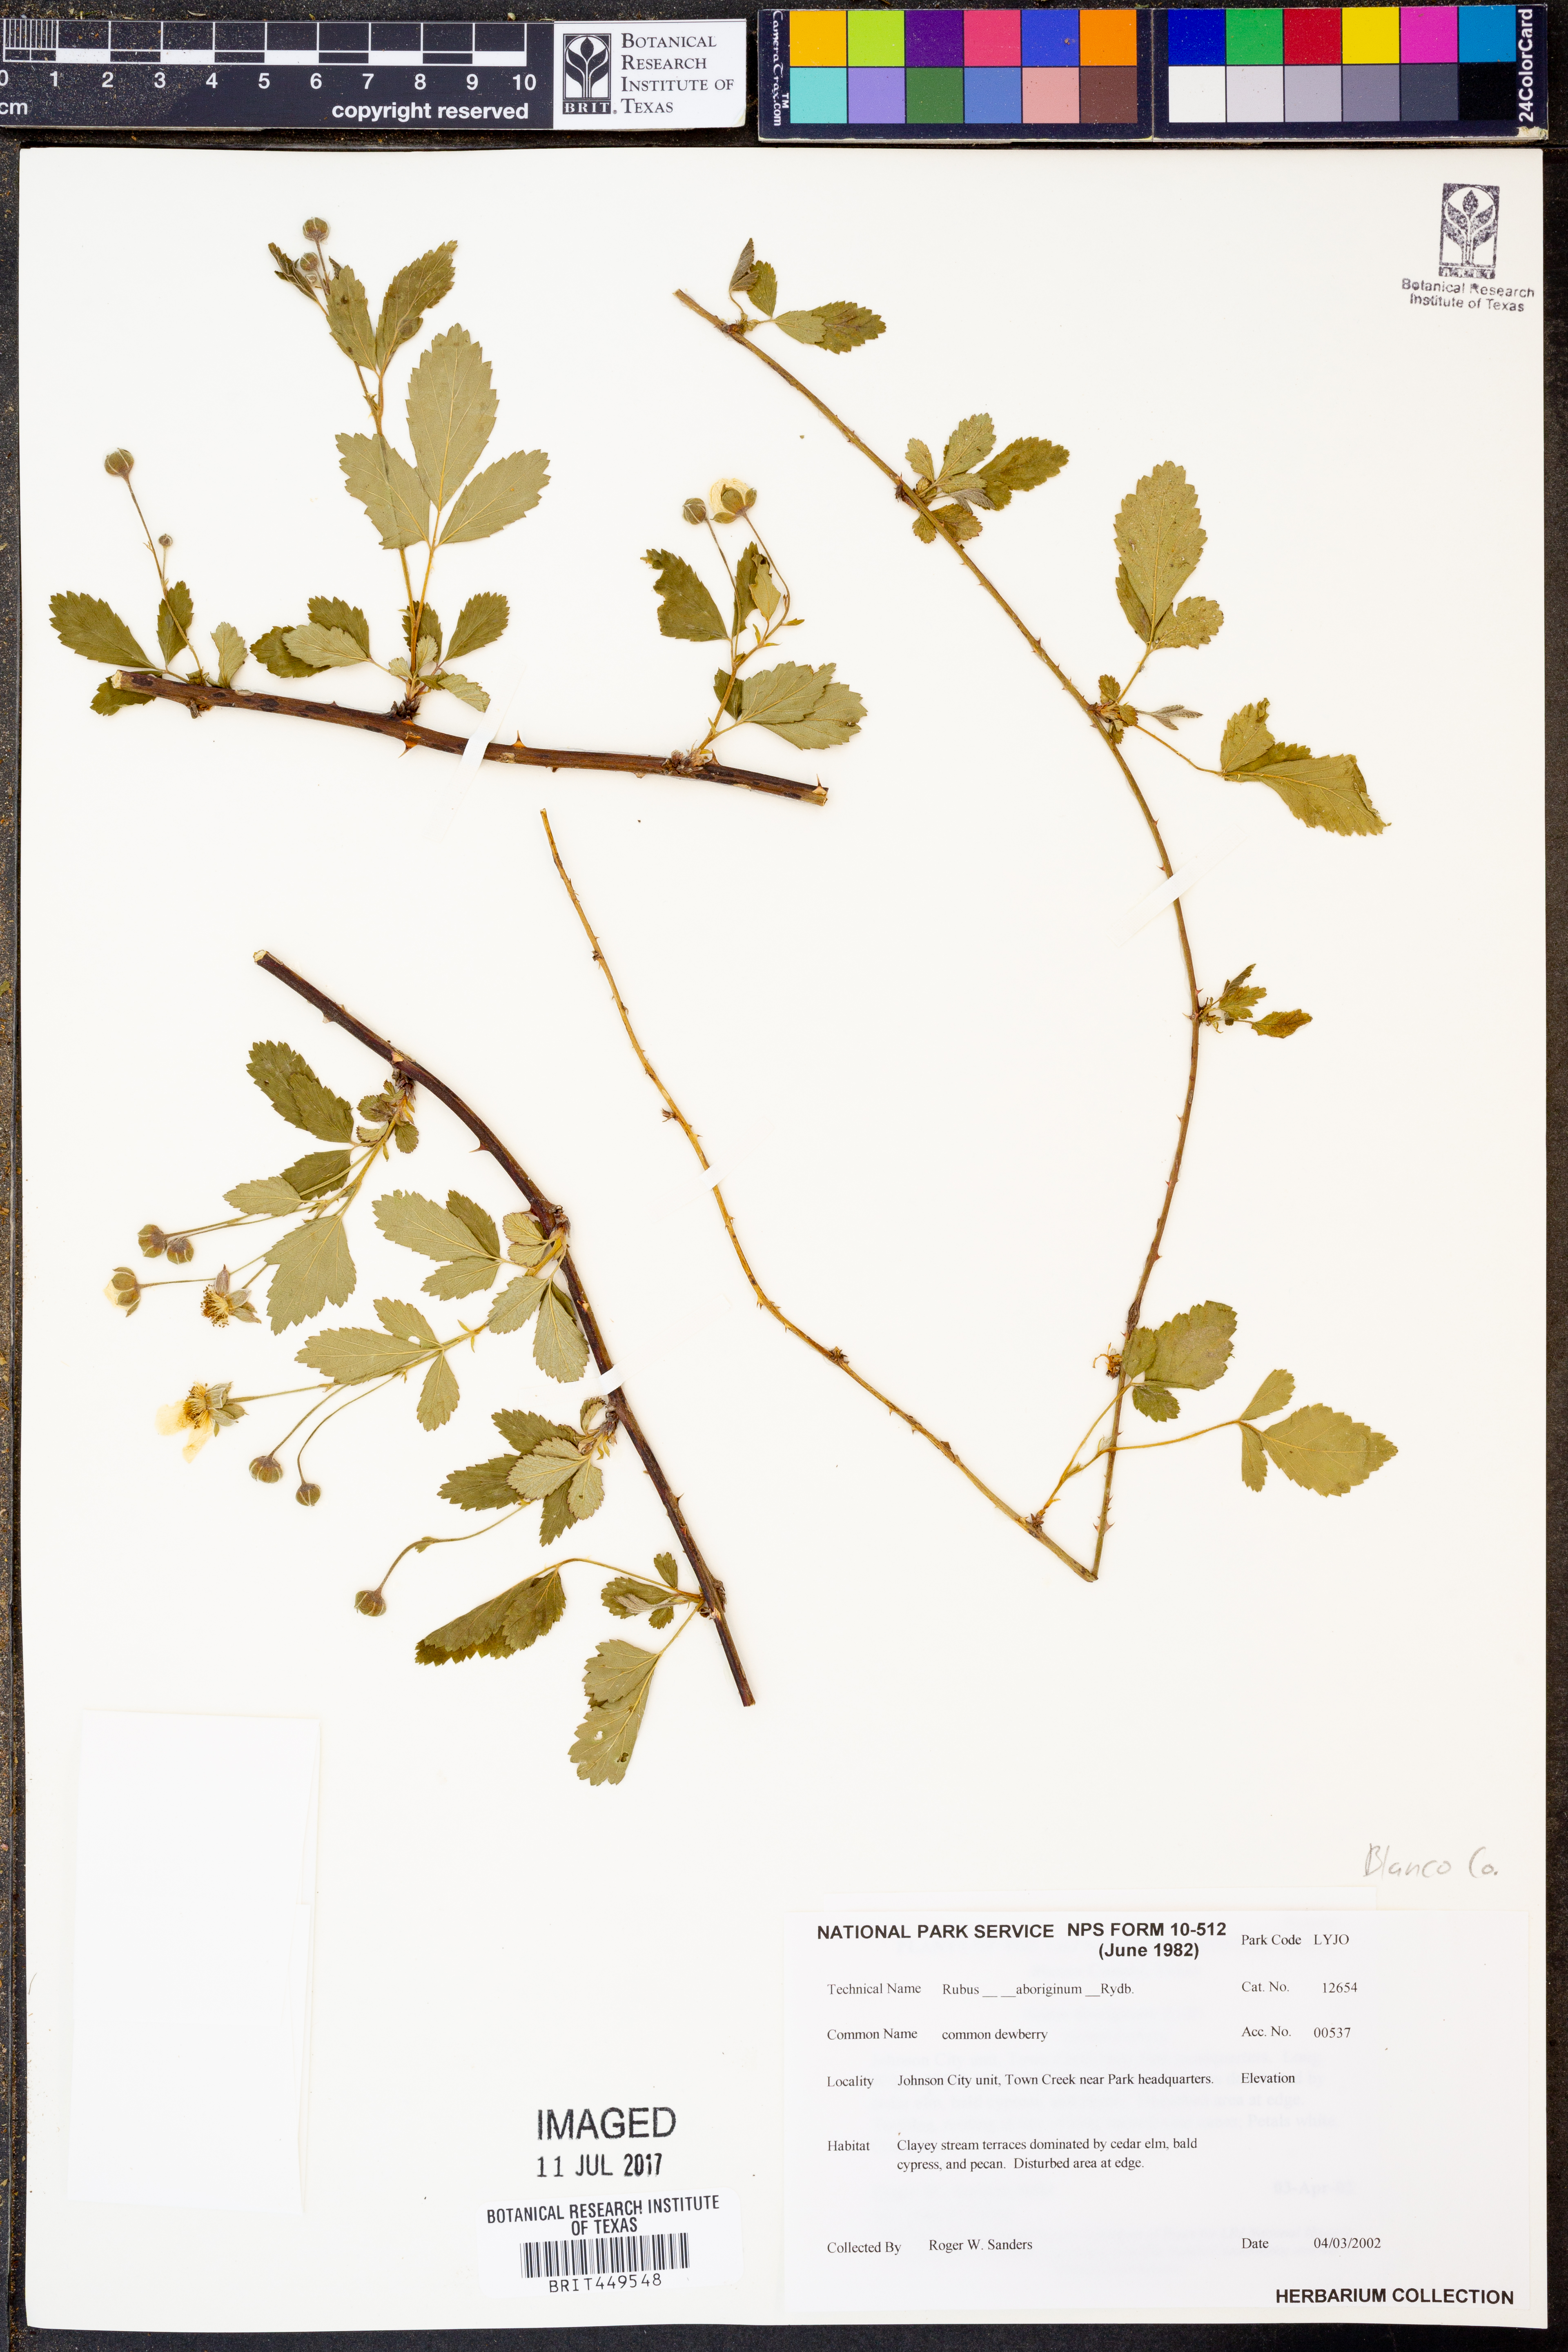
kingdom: Plantae
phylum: Tracheophyta
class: Magnoliopsida
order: Rosales
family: Rosaceae
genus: Rubus
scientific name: Rubus aboriginum
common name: Mayes dewberry
